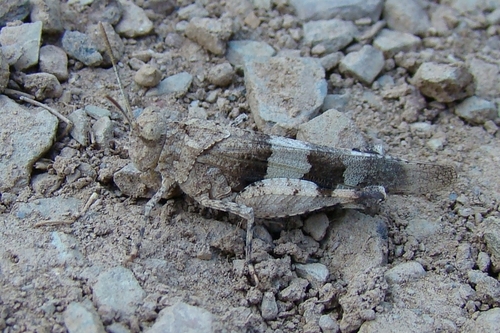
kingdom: Animalia
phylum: Arthropoda
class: Insecta
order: Orthoptera
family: Acrididae
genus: Oedipoda
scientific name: Oedipoda caerulescens
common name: Blue-winged grasshopper
